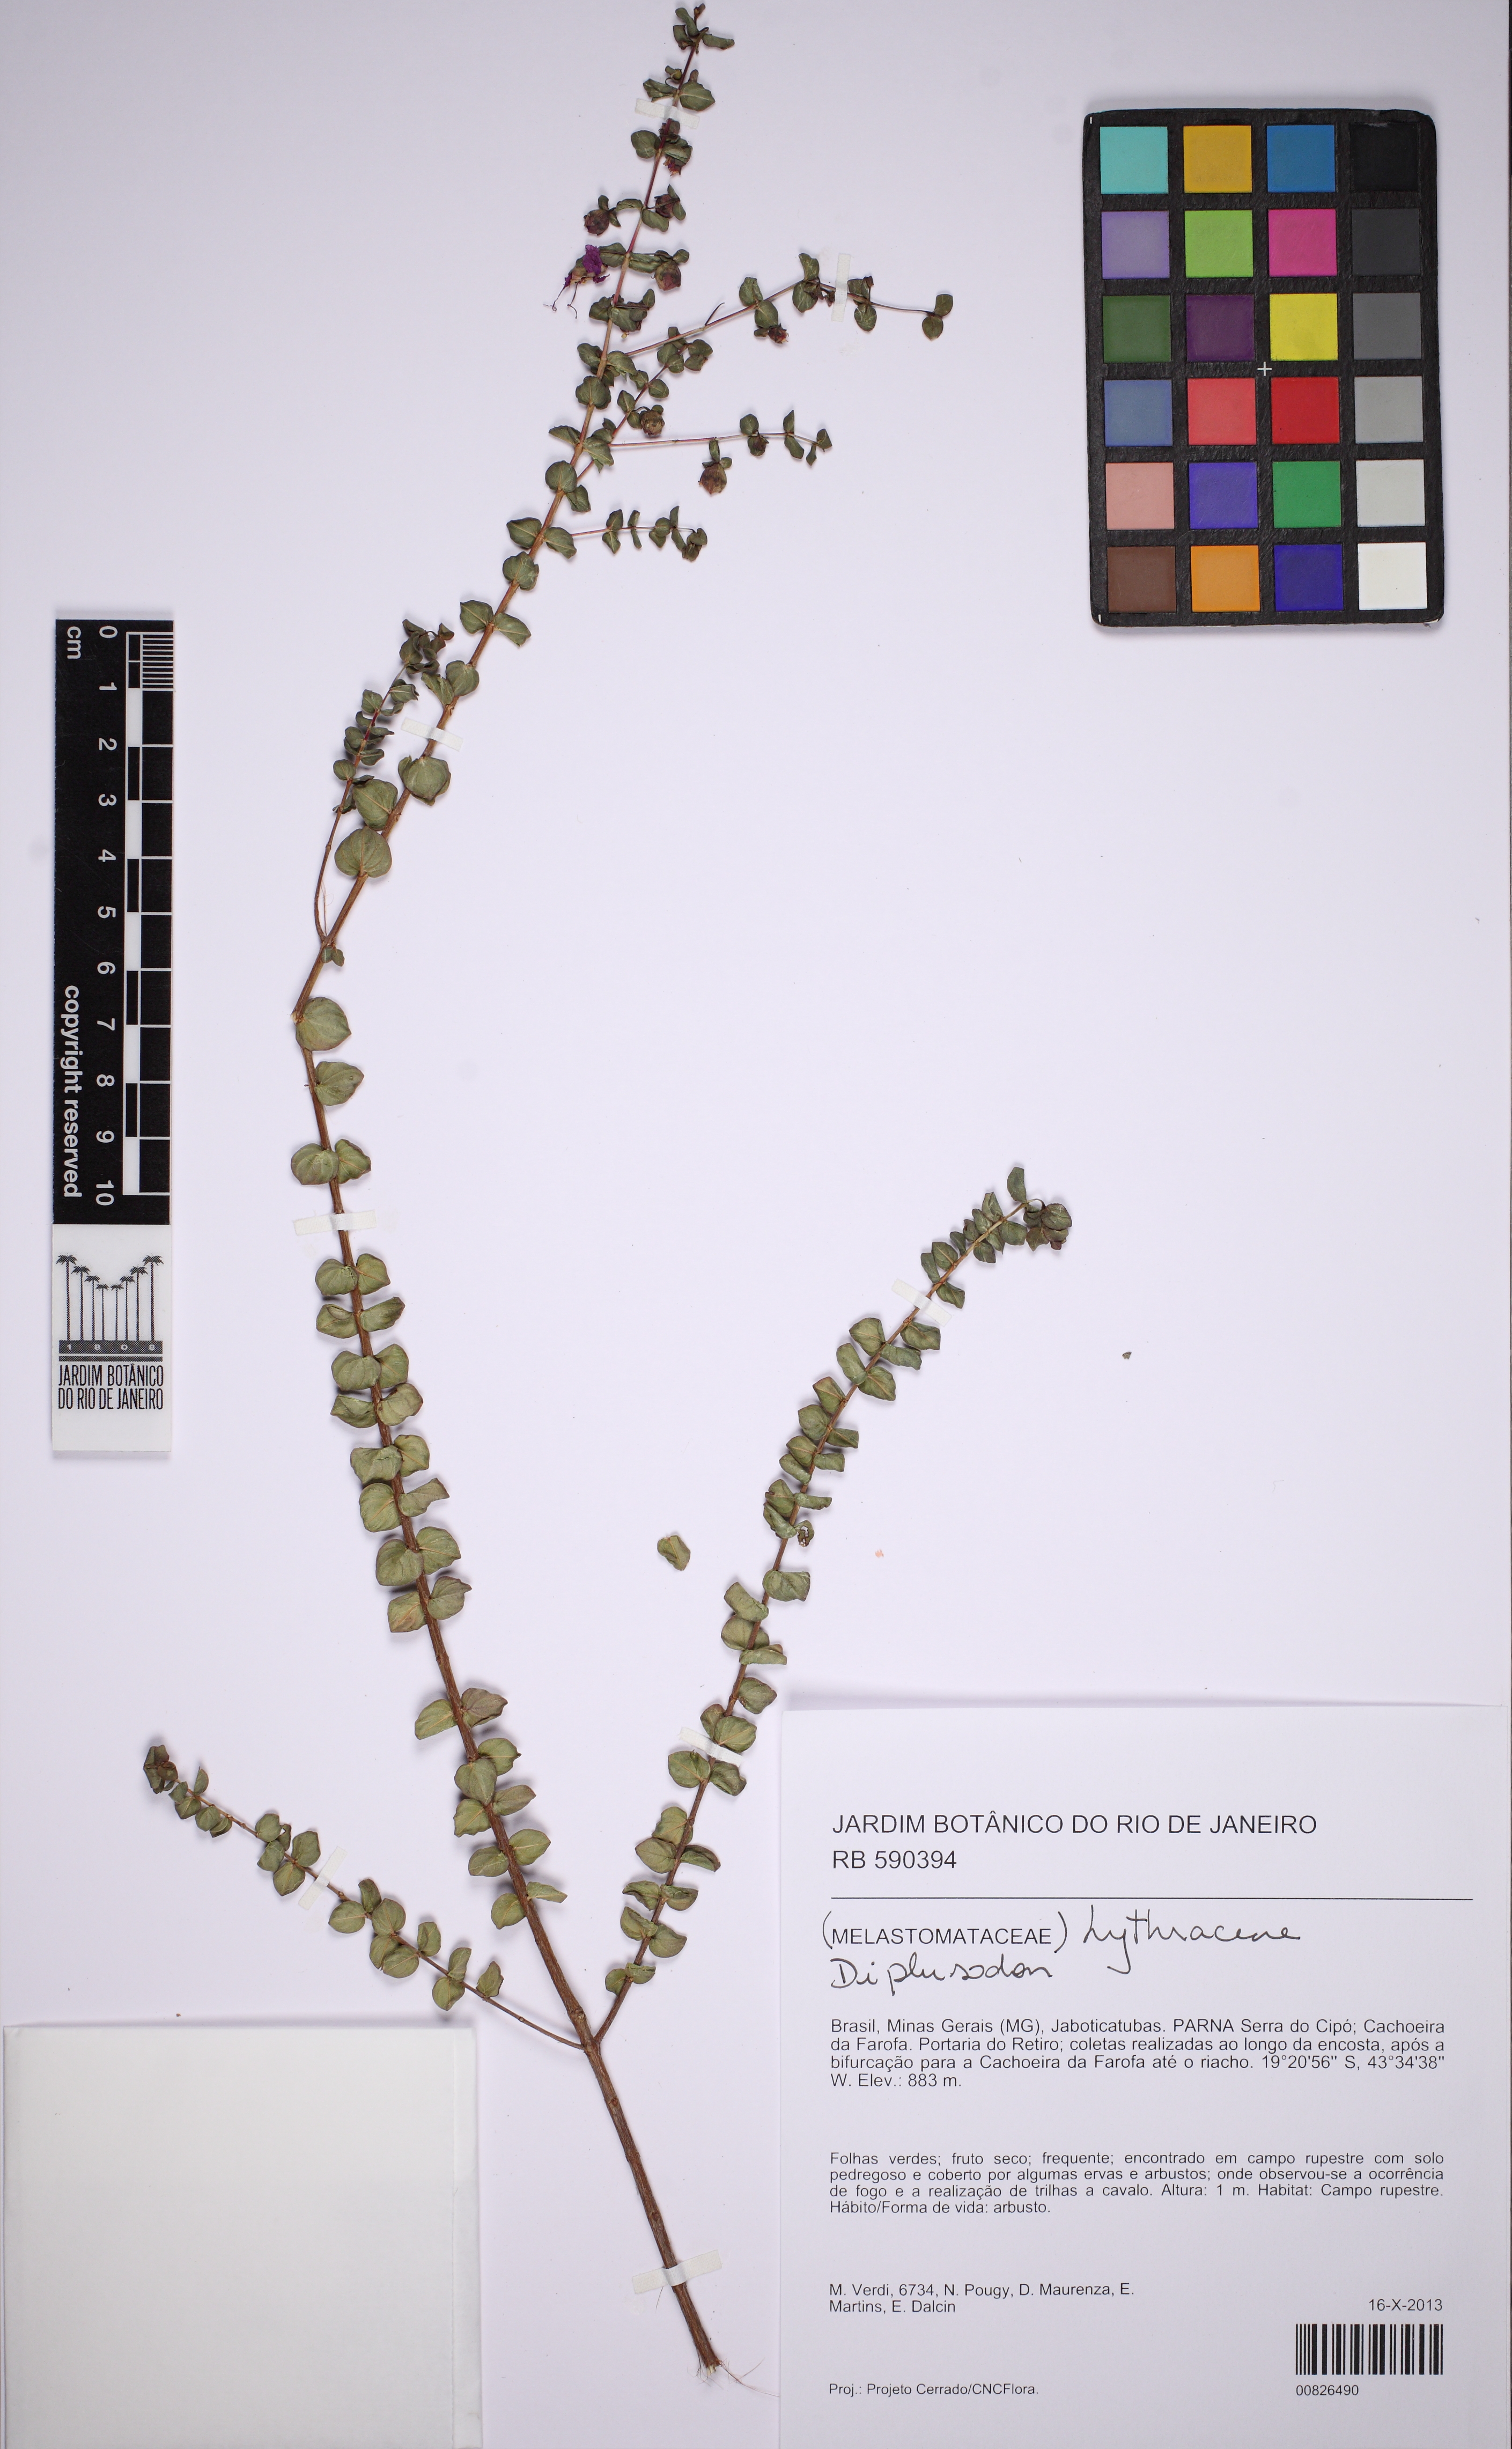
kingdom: Plantae
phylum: Tracheophyta
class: Magnoliopsida
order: Myrtales
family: Lythraceae
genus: Diplusodon
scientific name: Diplusodon orbicularis
